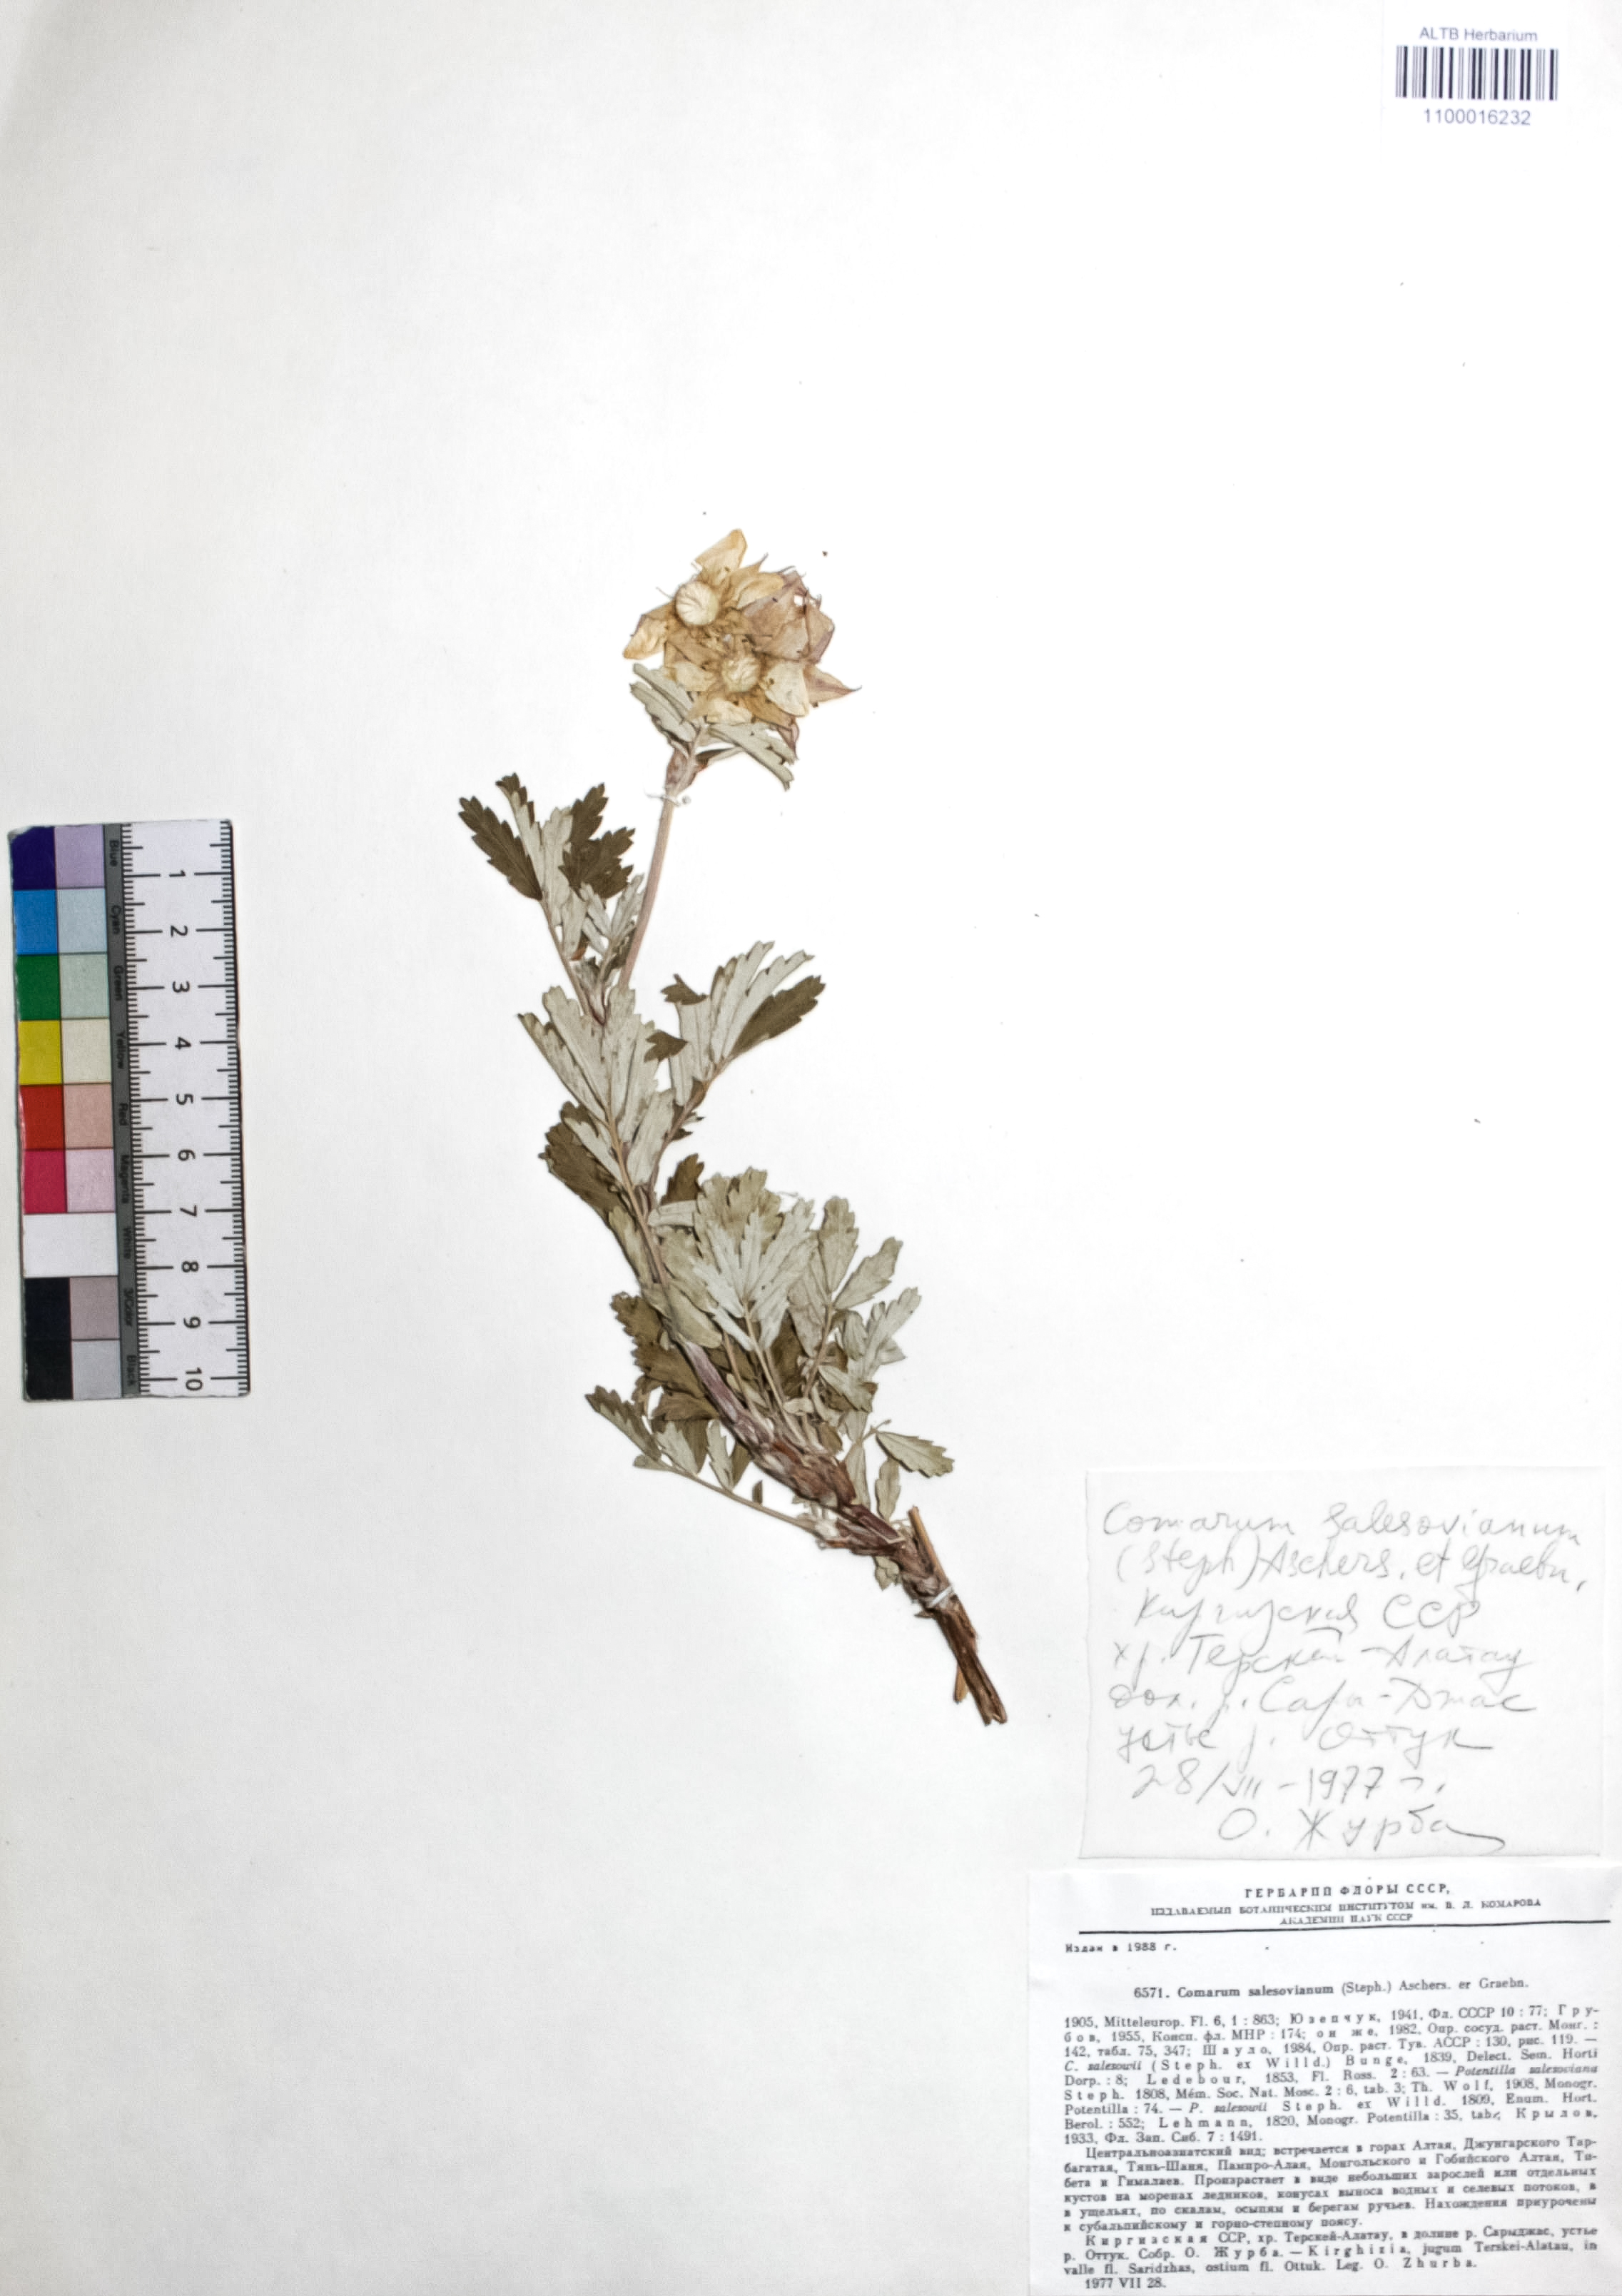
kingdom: Plantae
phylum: Tracheophyta
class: Magnoliopsida
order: Rosales
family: Rosaceae
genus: Farinopsis
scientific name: Farinopsis salesoviana
